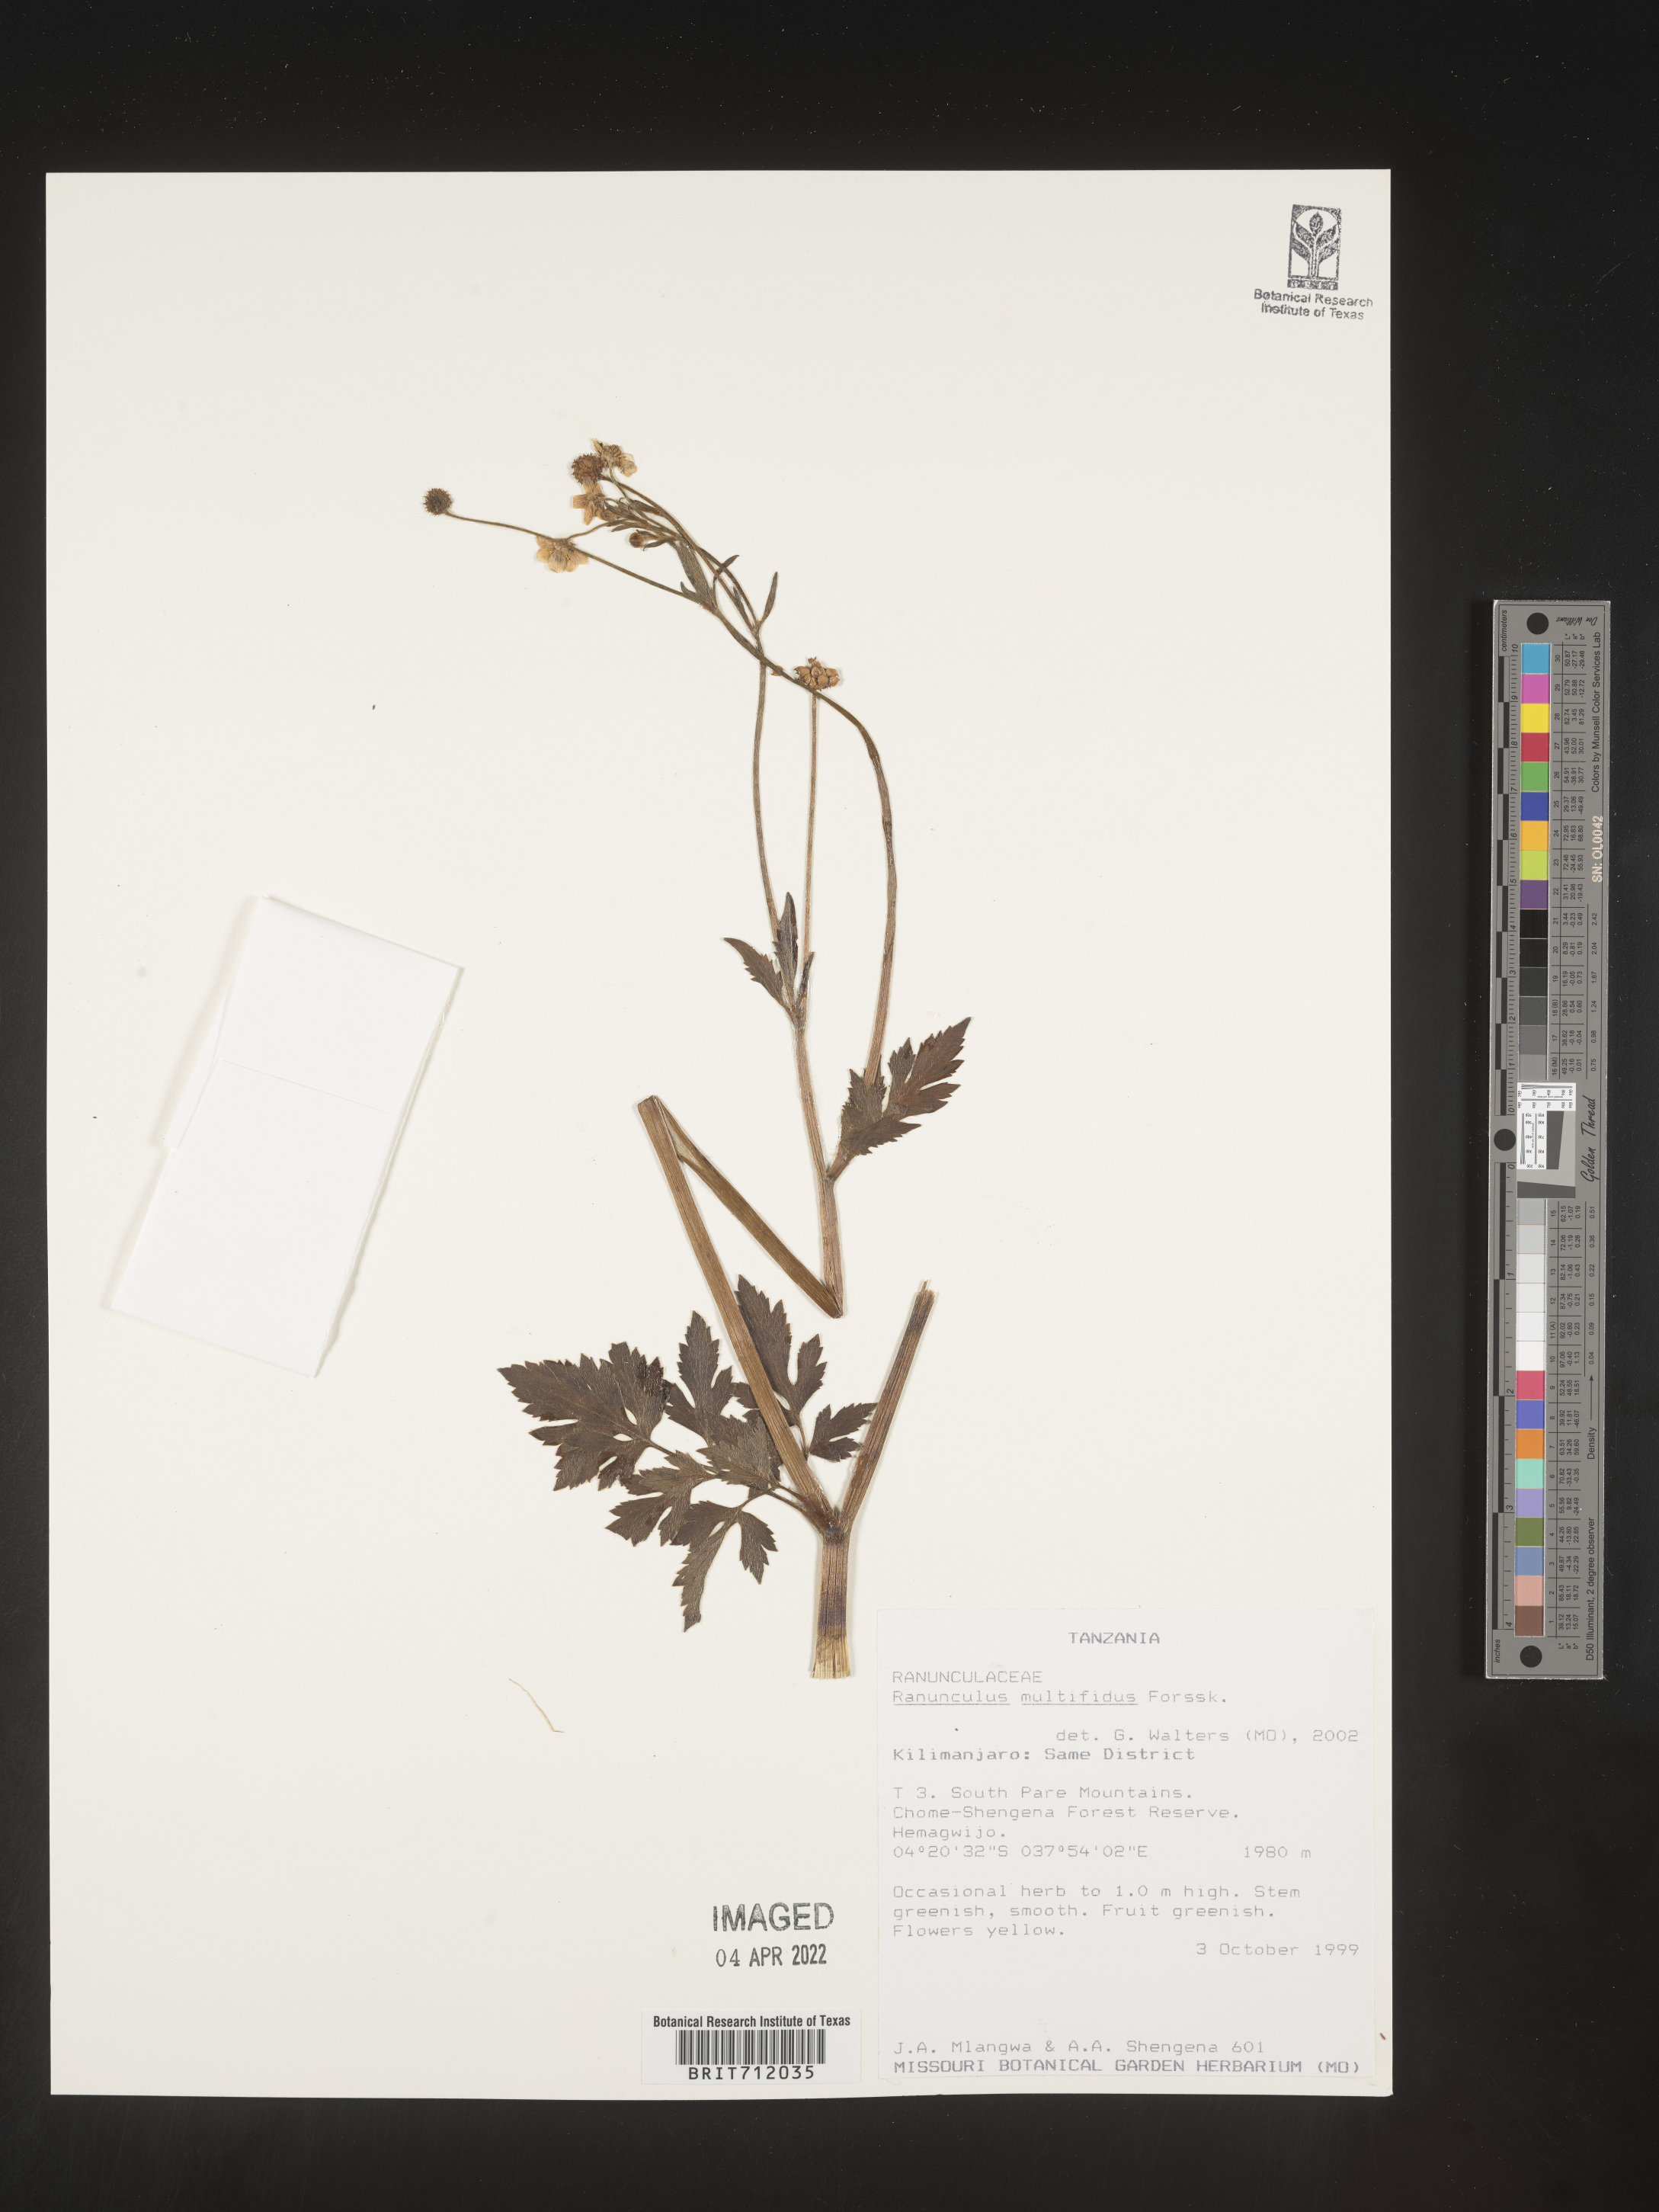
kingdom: Plantae
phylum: Tracheophyta
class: Magnoliopsida
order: Ranunculales
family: Ranunculaceae
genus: Ranunculus
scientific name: Ranunculus
